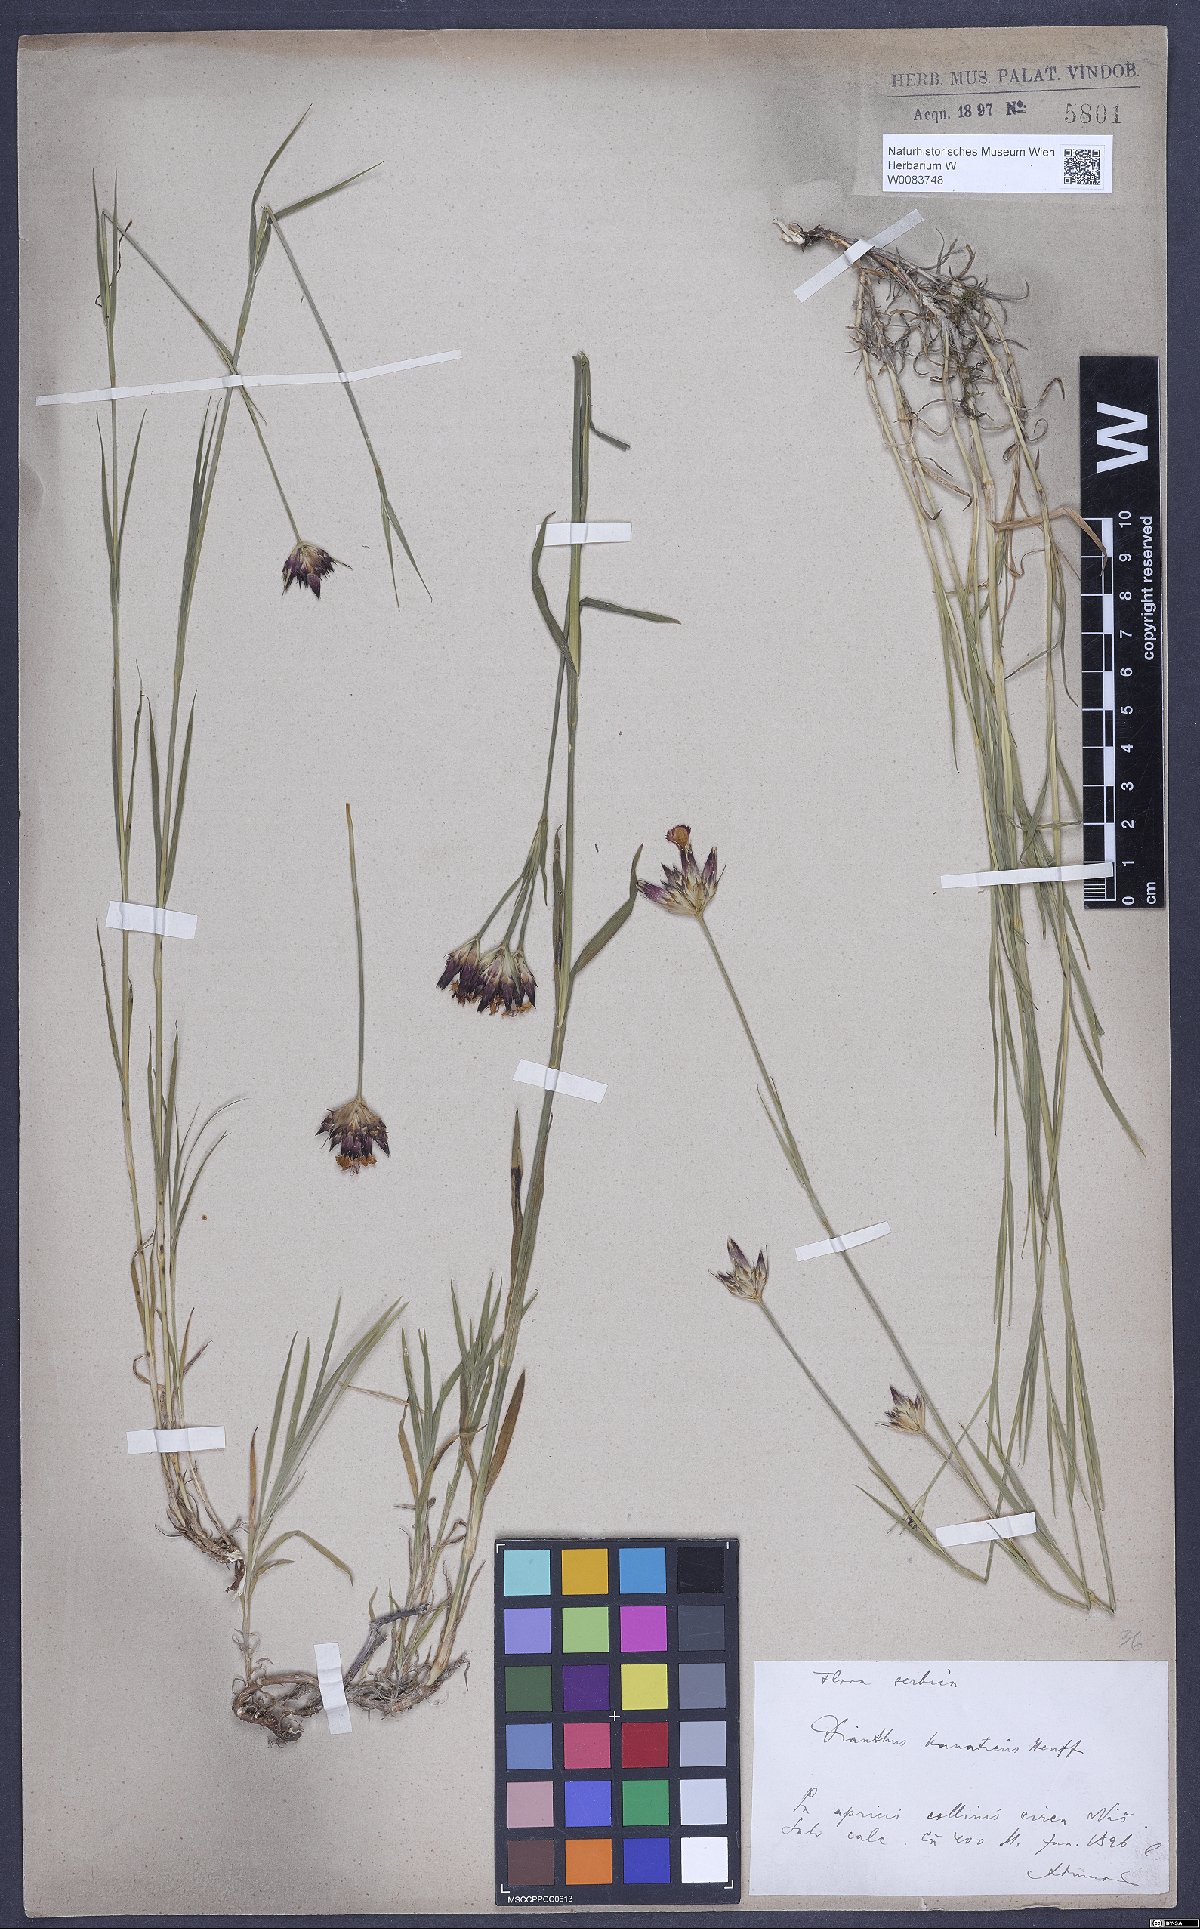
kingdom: Plantae
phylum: Tracheophyta
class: Magnoliopsida
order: Caryophyllales
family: Caryophyllaceae
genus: Dianthus
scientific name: Dianthus giganteus
